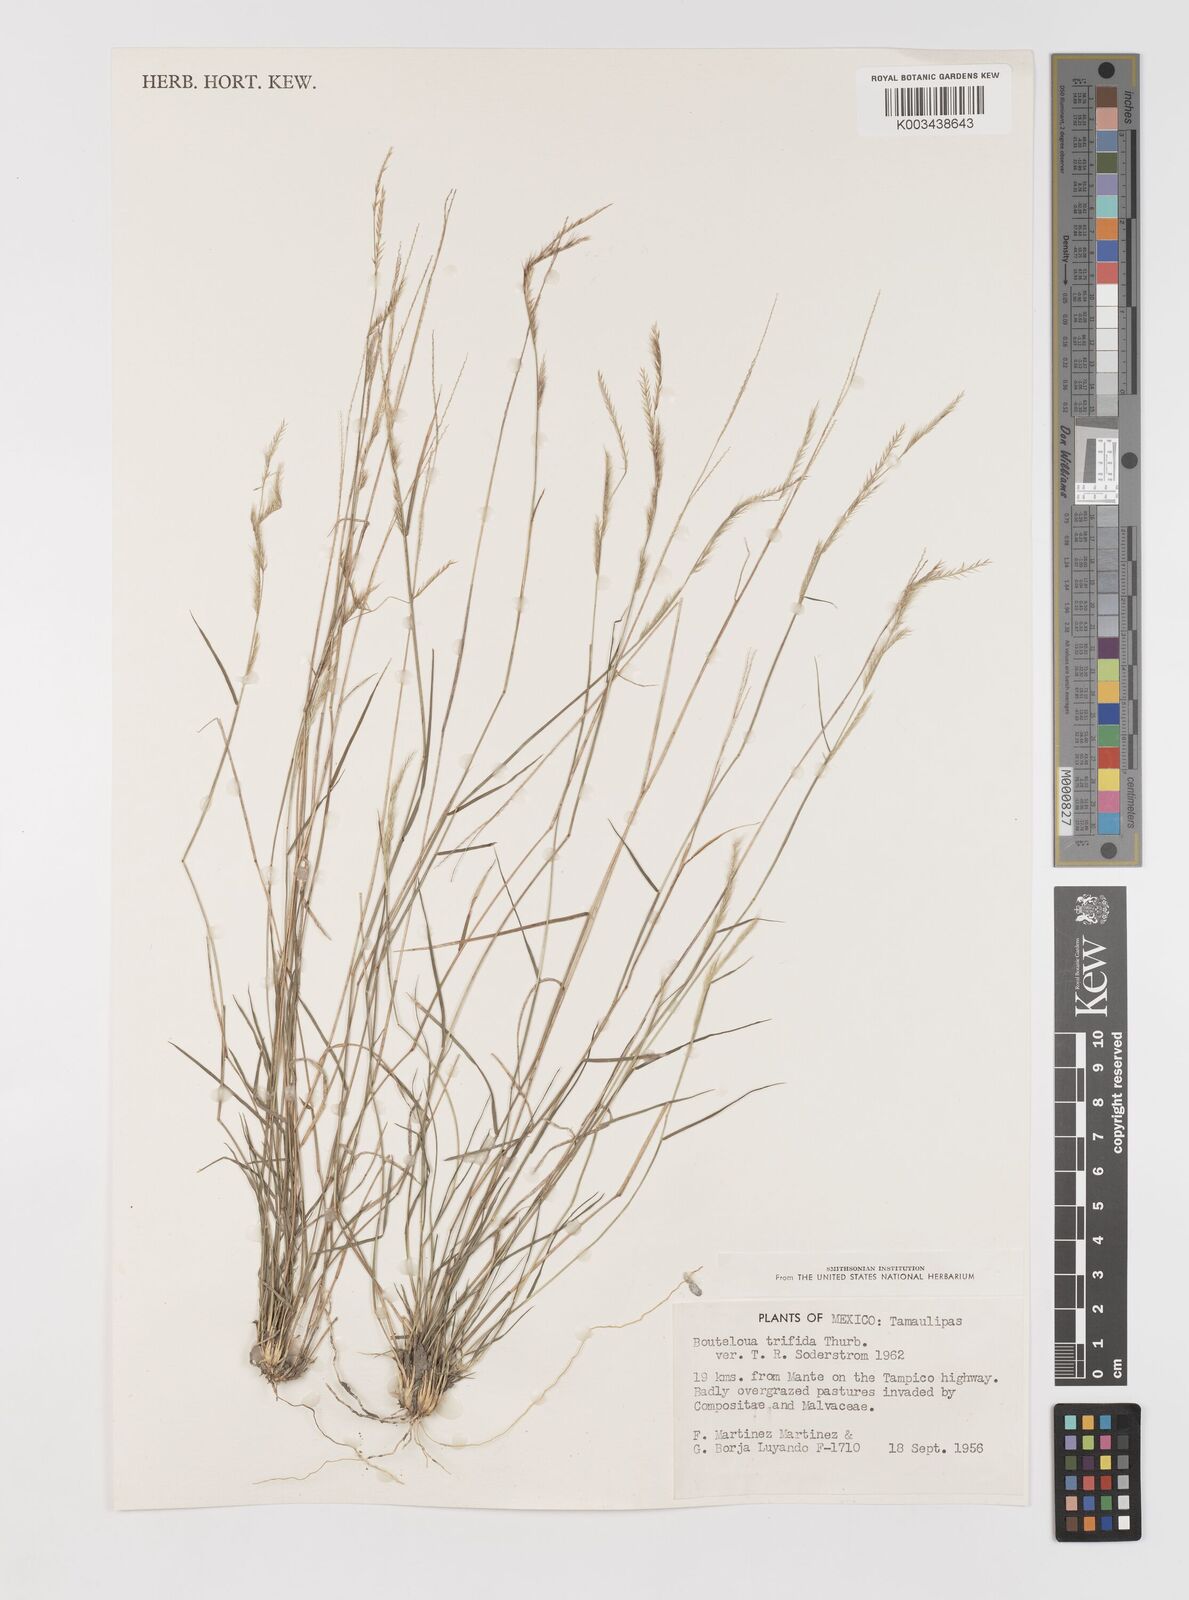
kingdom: Plantae
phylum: Tracheophyta
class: Liliopsida
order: Poales
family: Poaceae
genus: Bouteloua
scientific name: Bouteloua
